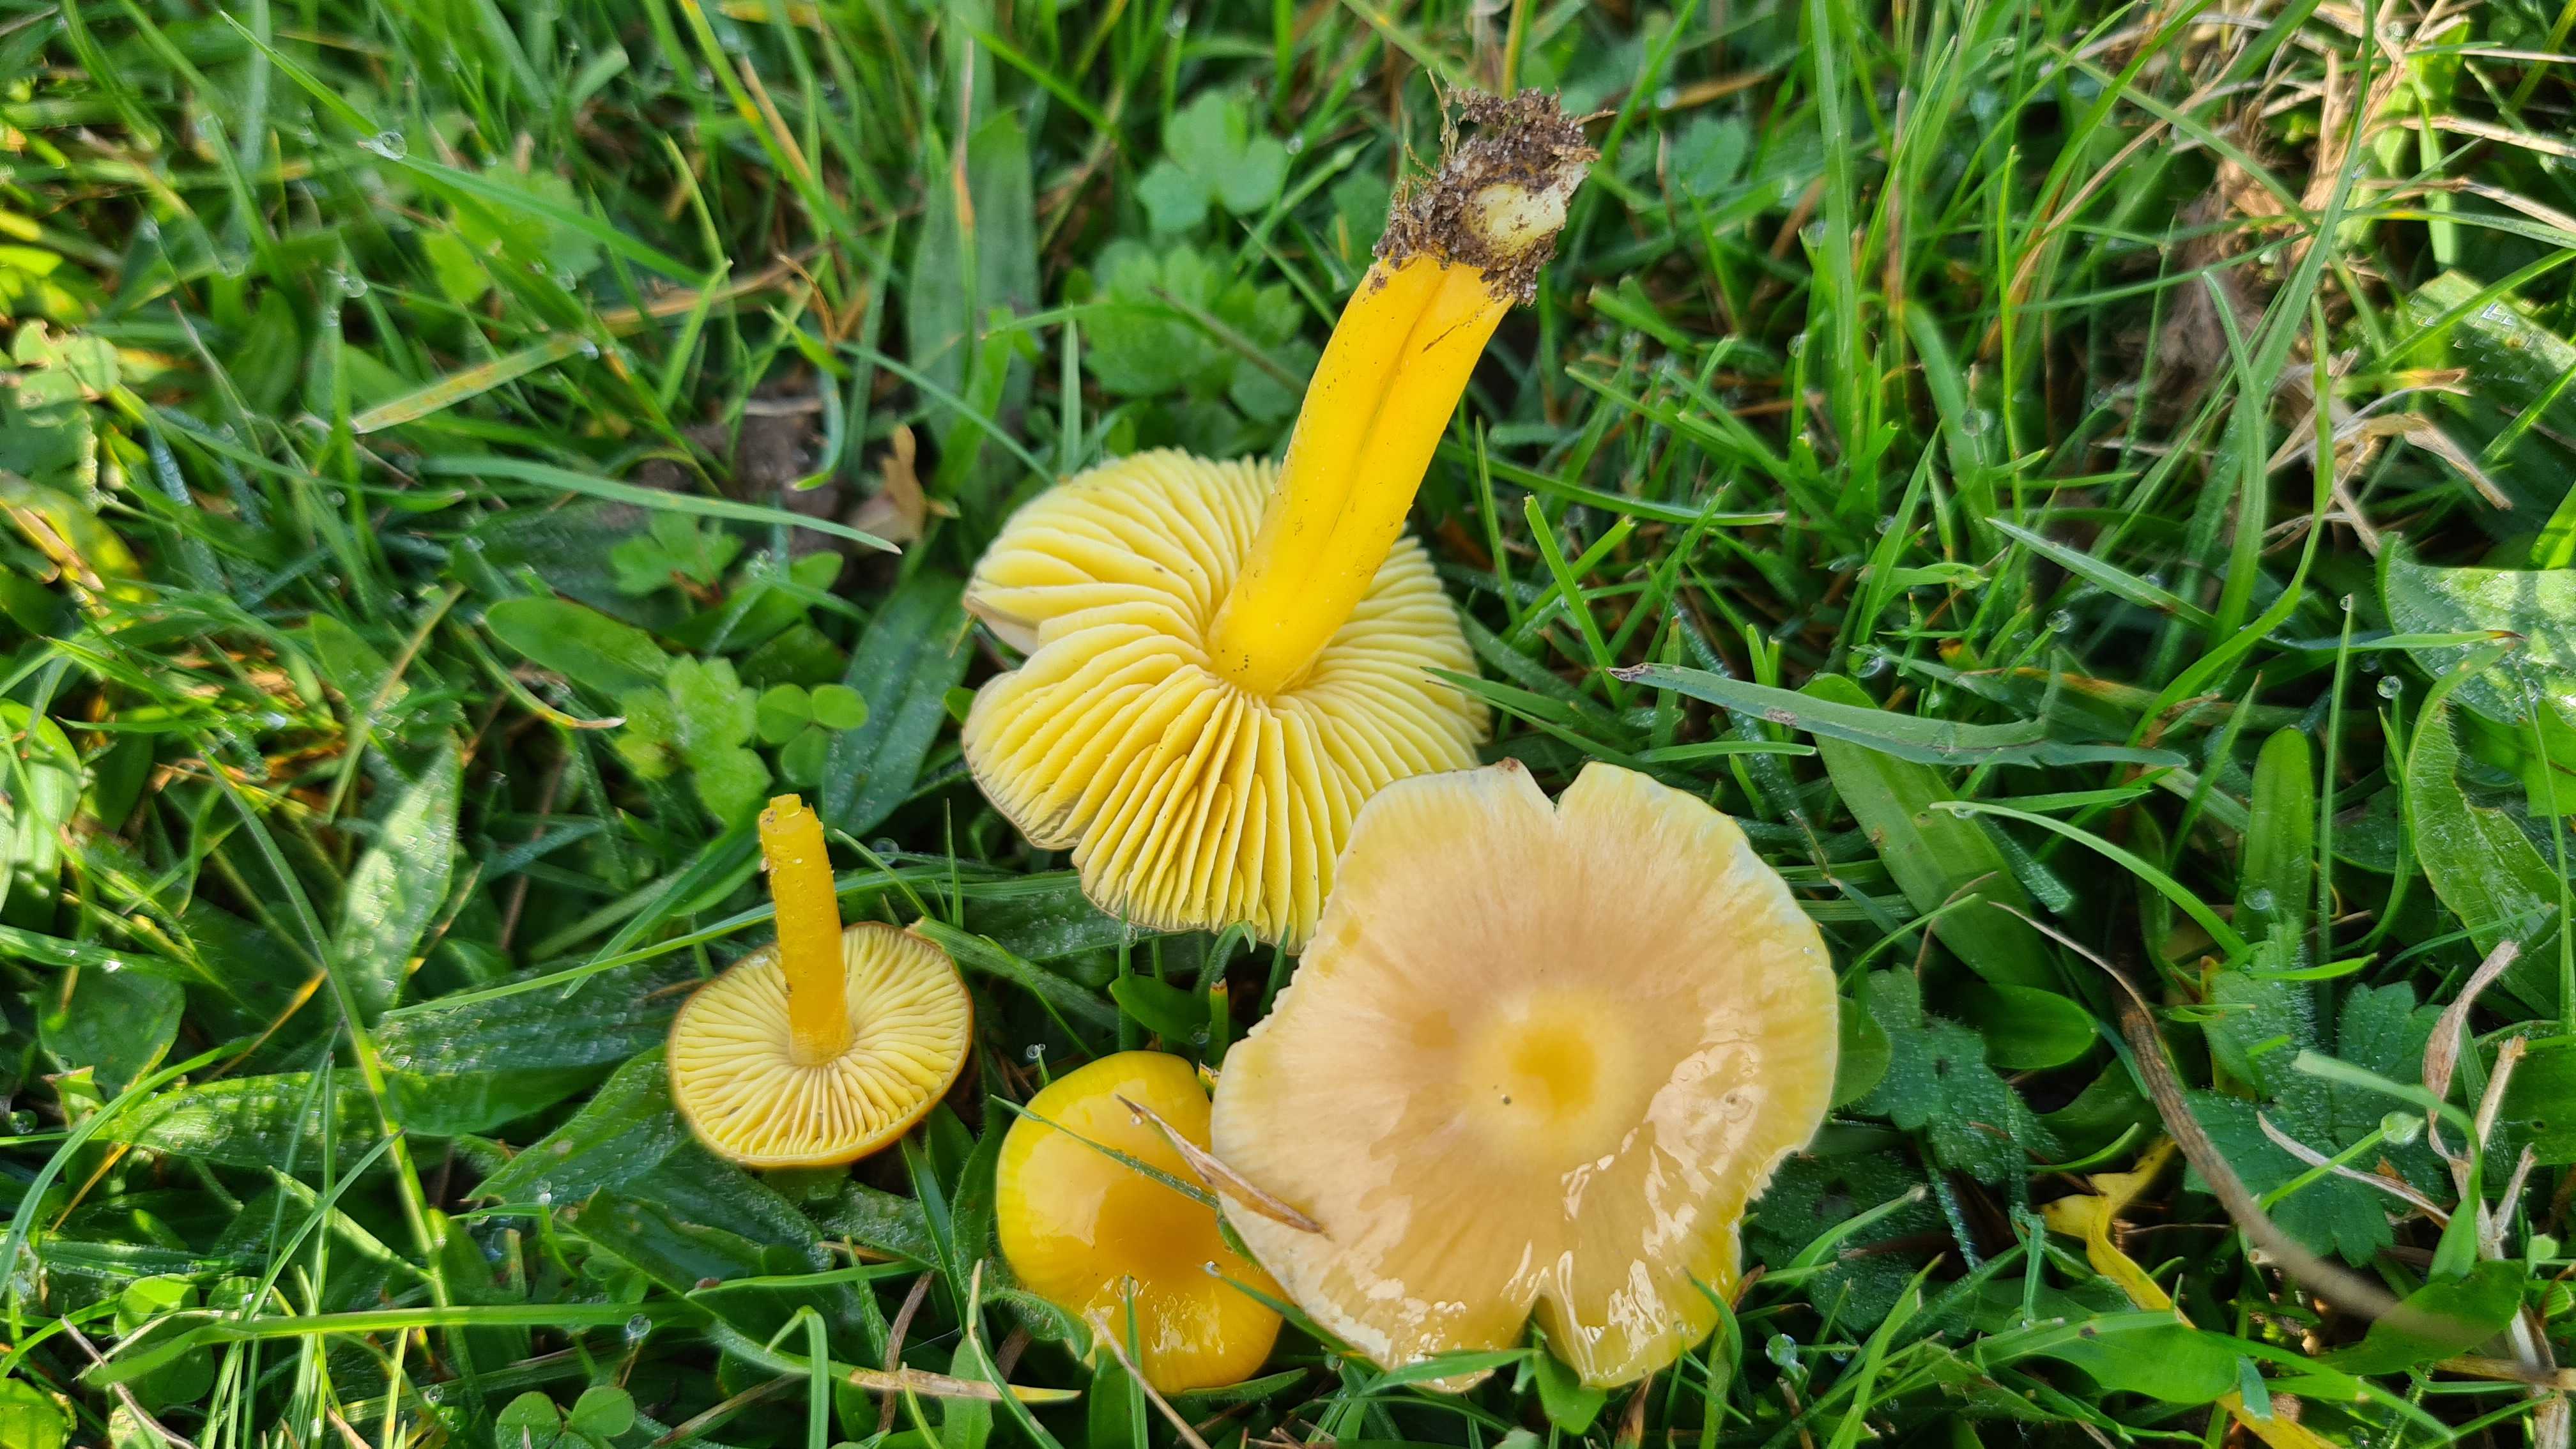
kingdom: Fungi
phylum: Basidiomycota
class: Agaricomycetes
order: Agaricales
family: Hygrophoraceae
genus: Hygrocybe
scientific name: Hygrocybe chlorophana
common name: gul vokshat
